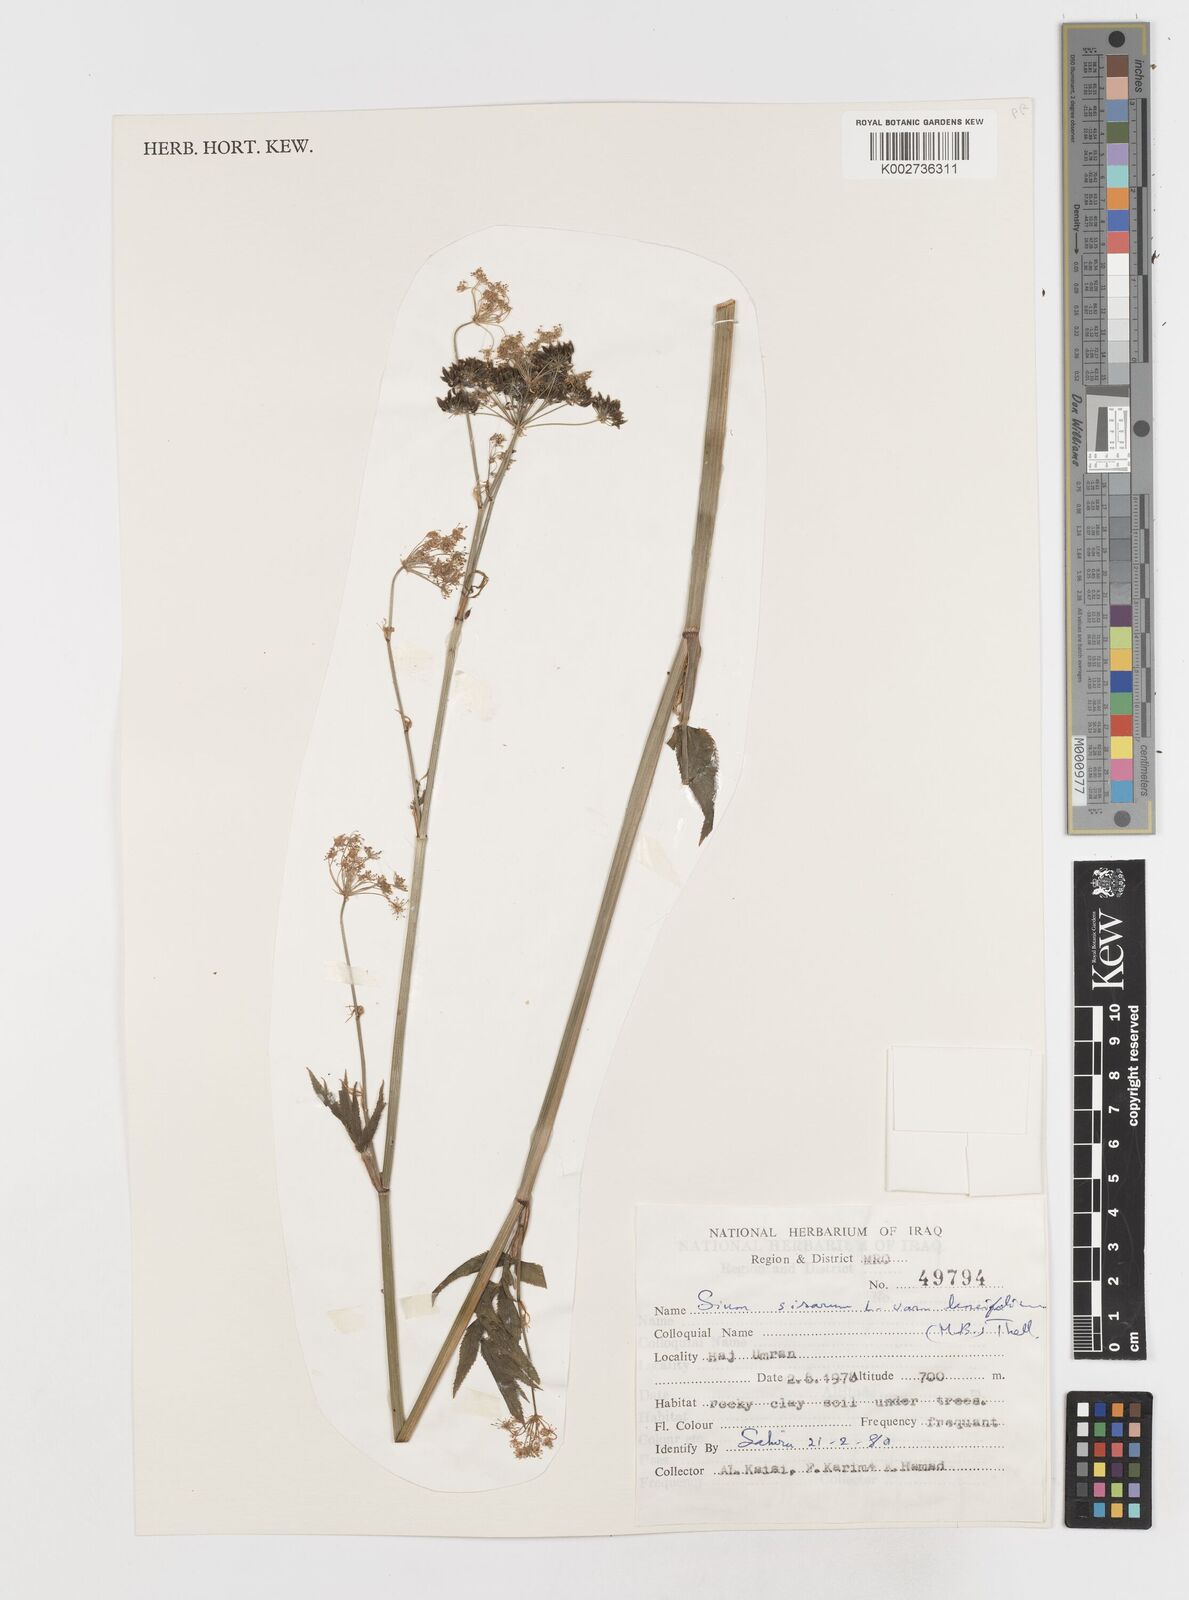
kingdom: Plantae
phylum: Tracheophyta
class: Magnoliopsida
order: Apiales
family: Apiaceae
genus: Sium
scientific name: Sium sisarum
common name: Skirret
